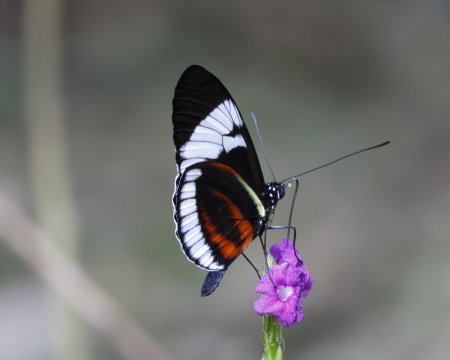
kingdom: Animalia
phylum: Arthropoda
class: Insecta
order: Lepidoptera
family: Nymphalidae
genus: Heliconius
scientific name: Heliconius cydno
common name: Cydno Longwing
